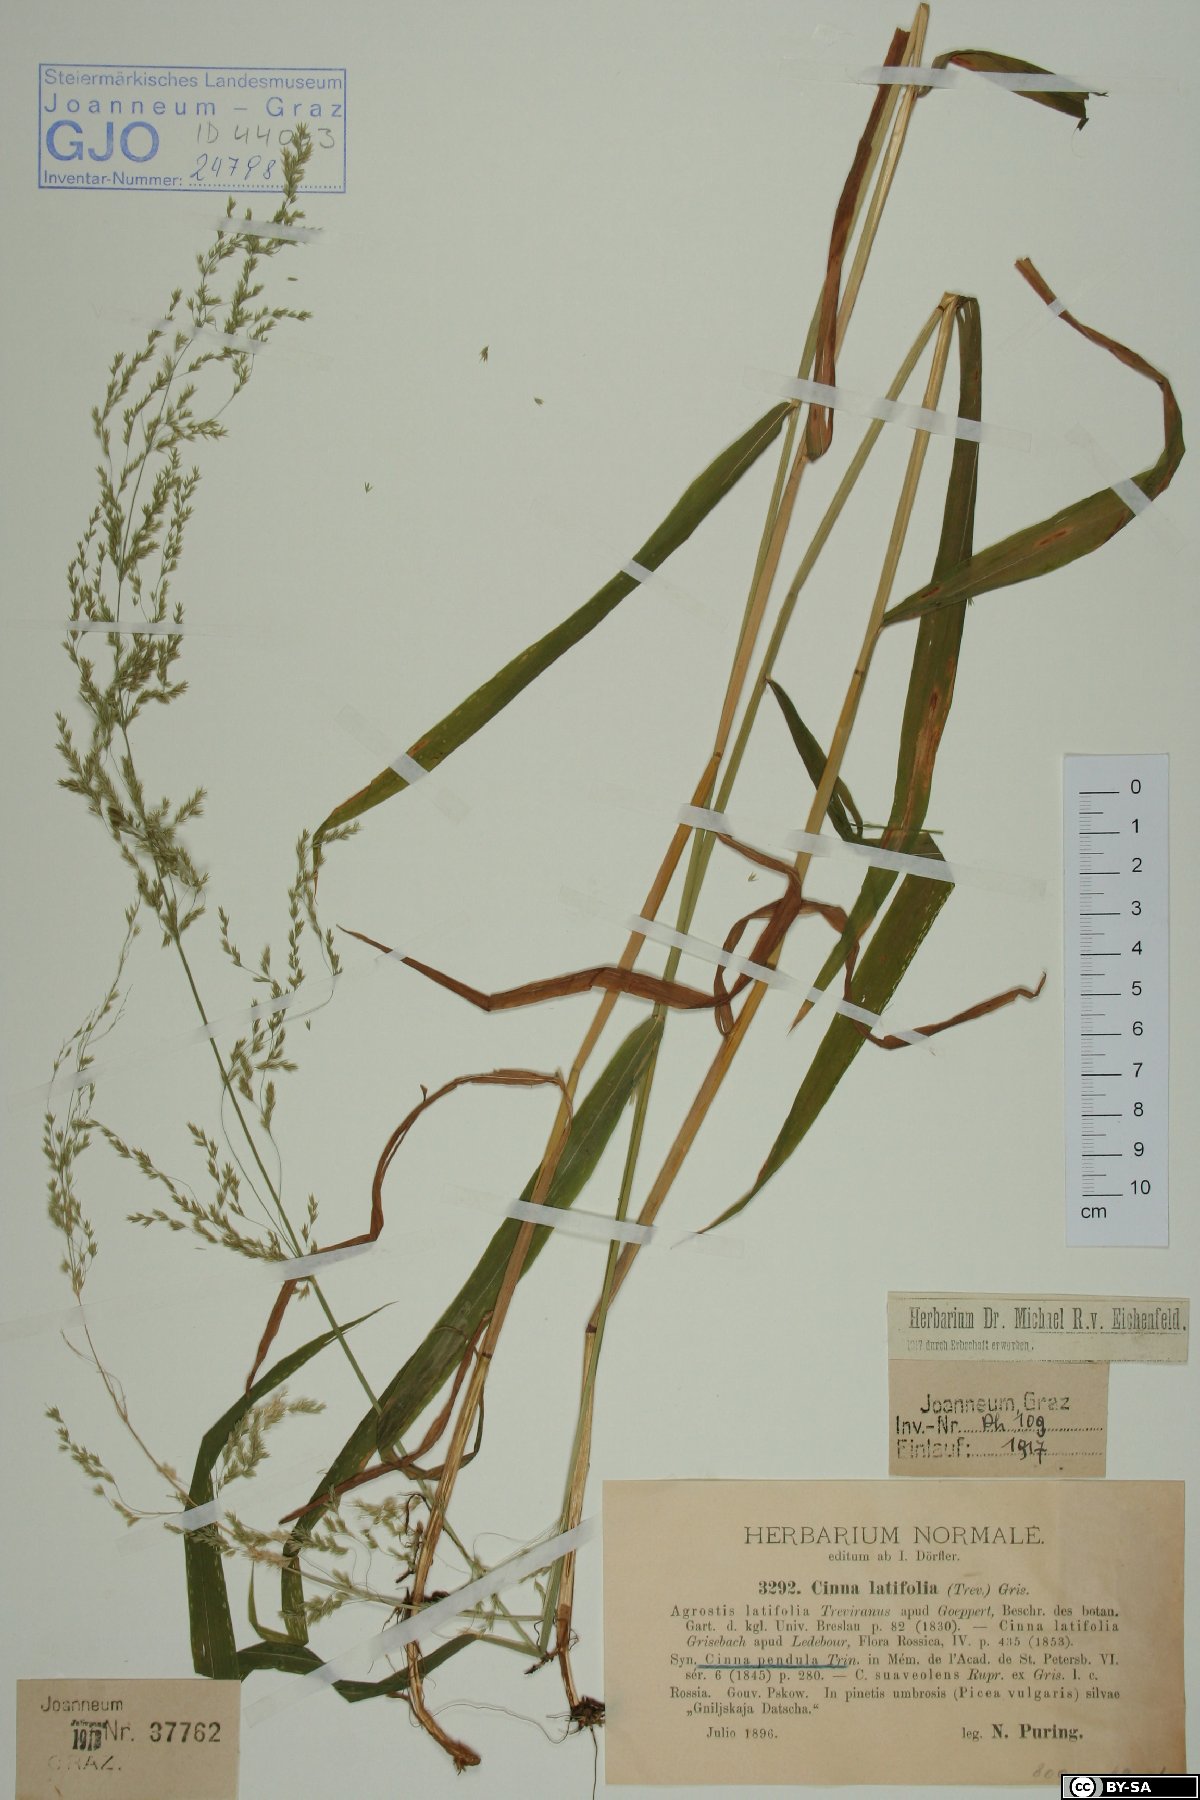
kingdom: Plantae
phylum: Tracheophyta
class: Liliopsida
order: Poales
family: Poaceae
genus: Cinna
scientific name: Cinna latifolia
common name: Drooping woodreed
